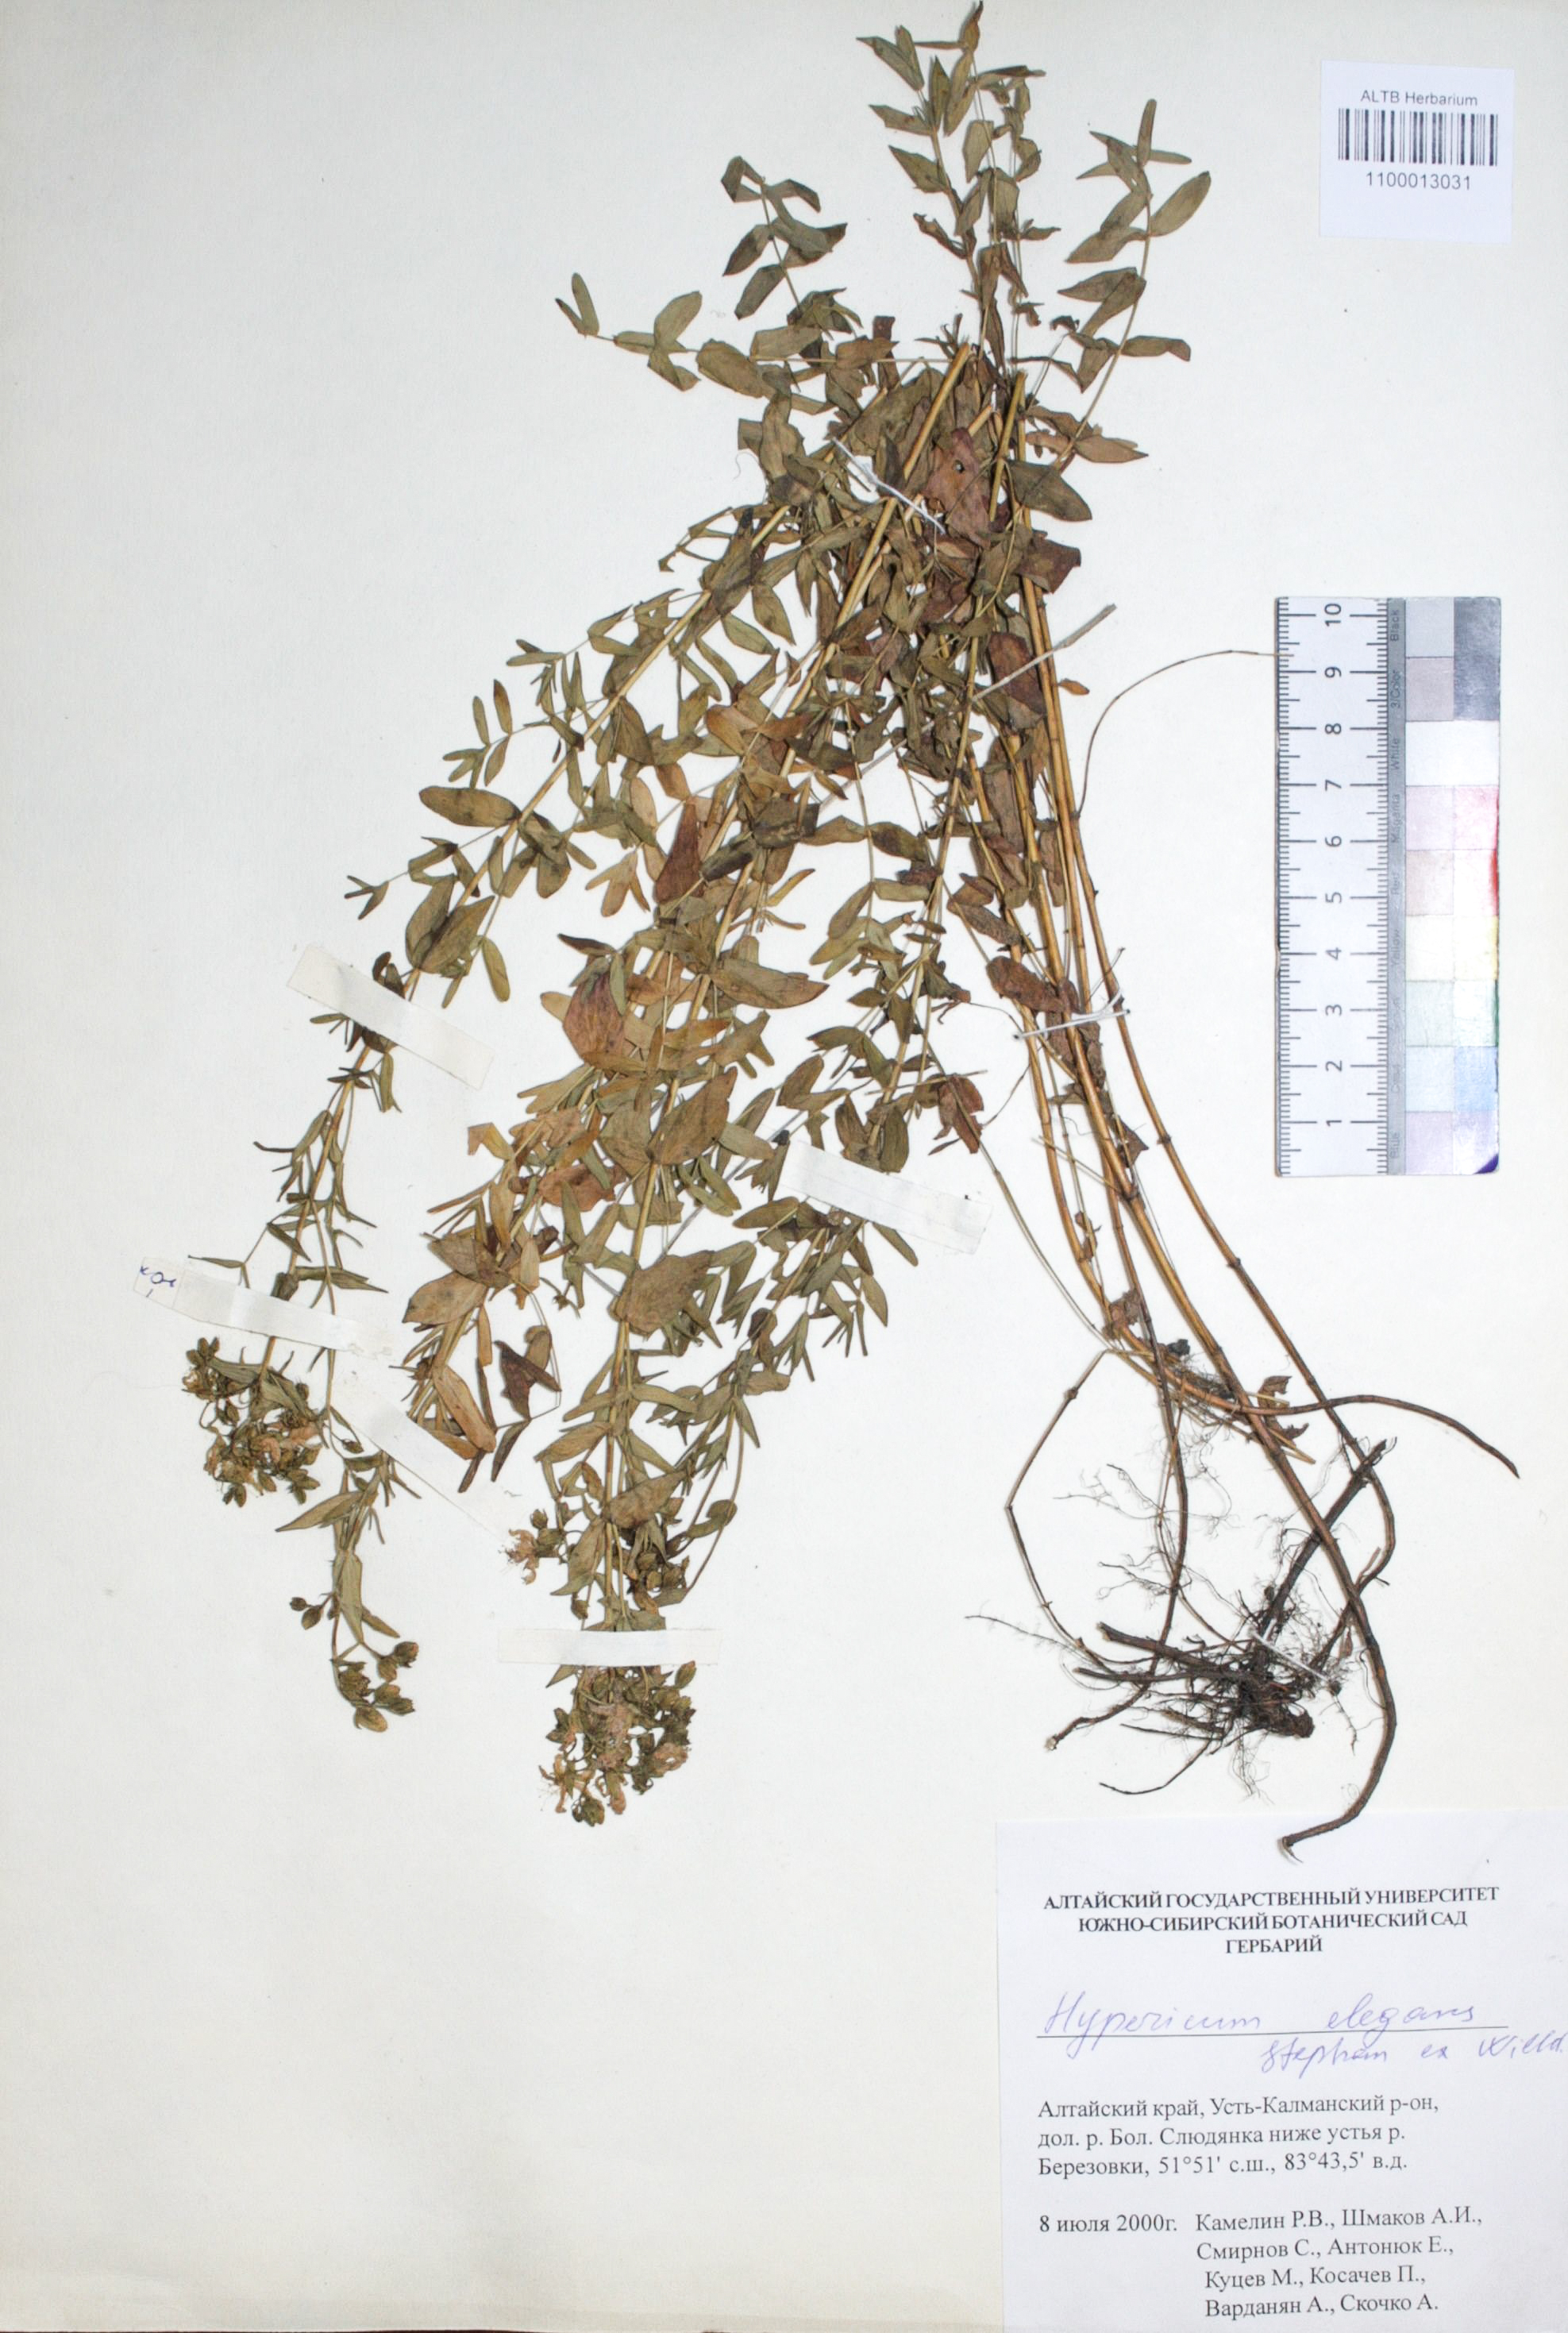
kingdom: Plantae
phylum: Tracheophyta
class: Magnoliopsida
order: Malpighiales
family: Hypericaceae
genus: Hypericum
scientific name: Hypericum elegans
